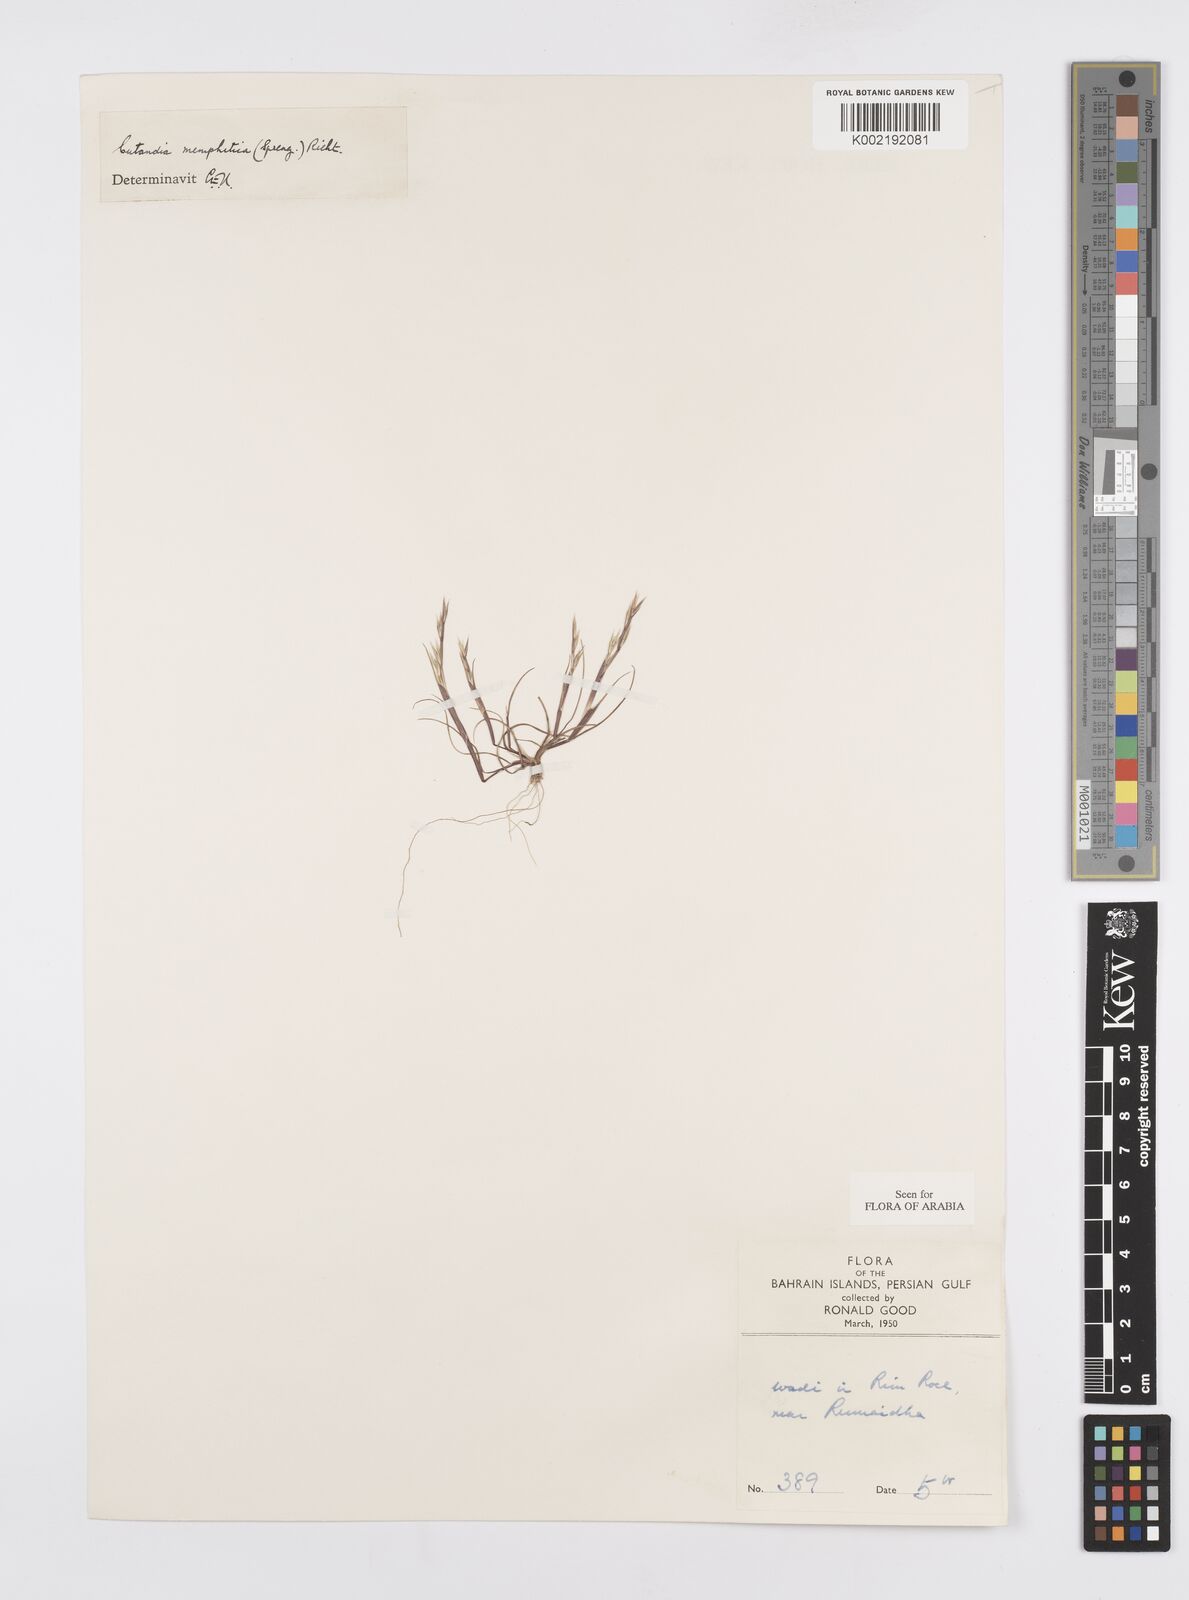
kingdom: Plantae
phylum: Tracheophyta
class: Liliopsida
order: Poales
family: Poaceae
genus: Cutandia
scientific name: Cutandia memphitica
